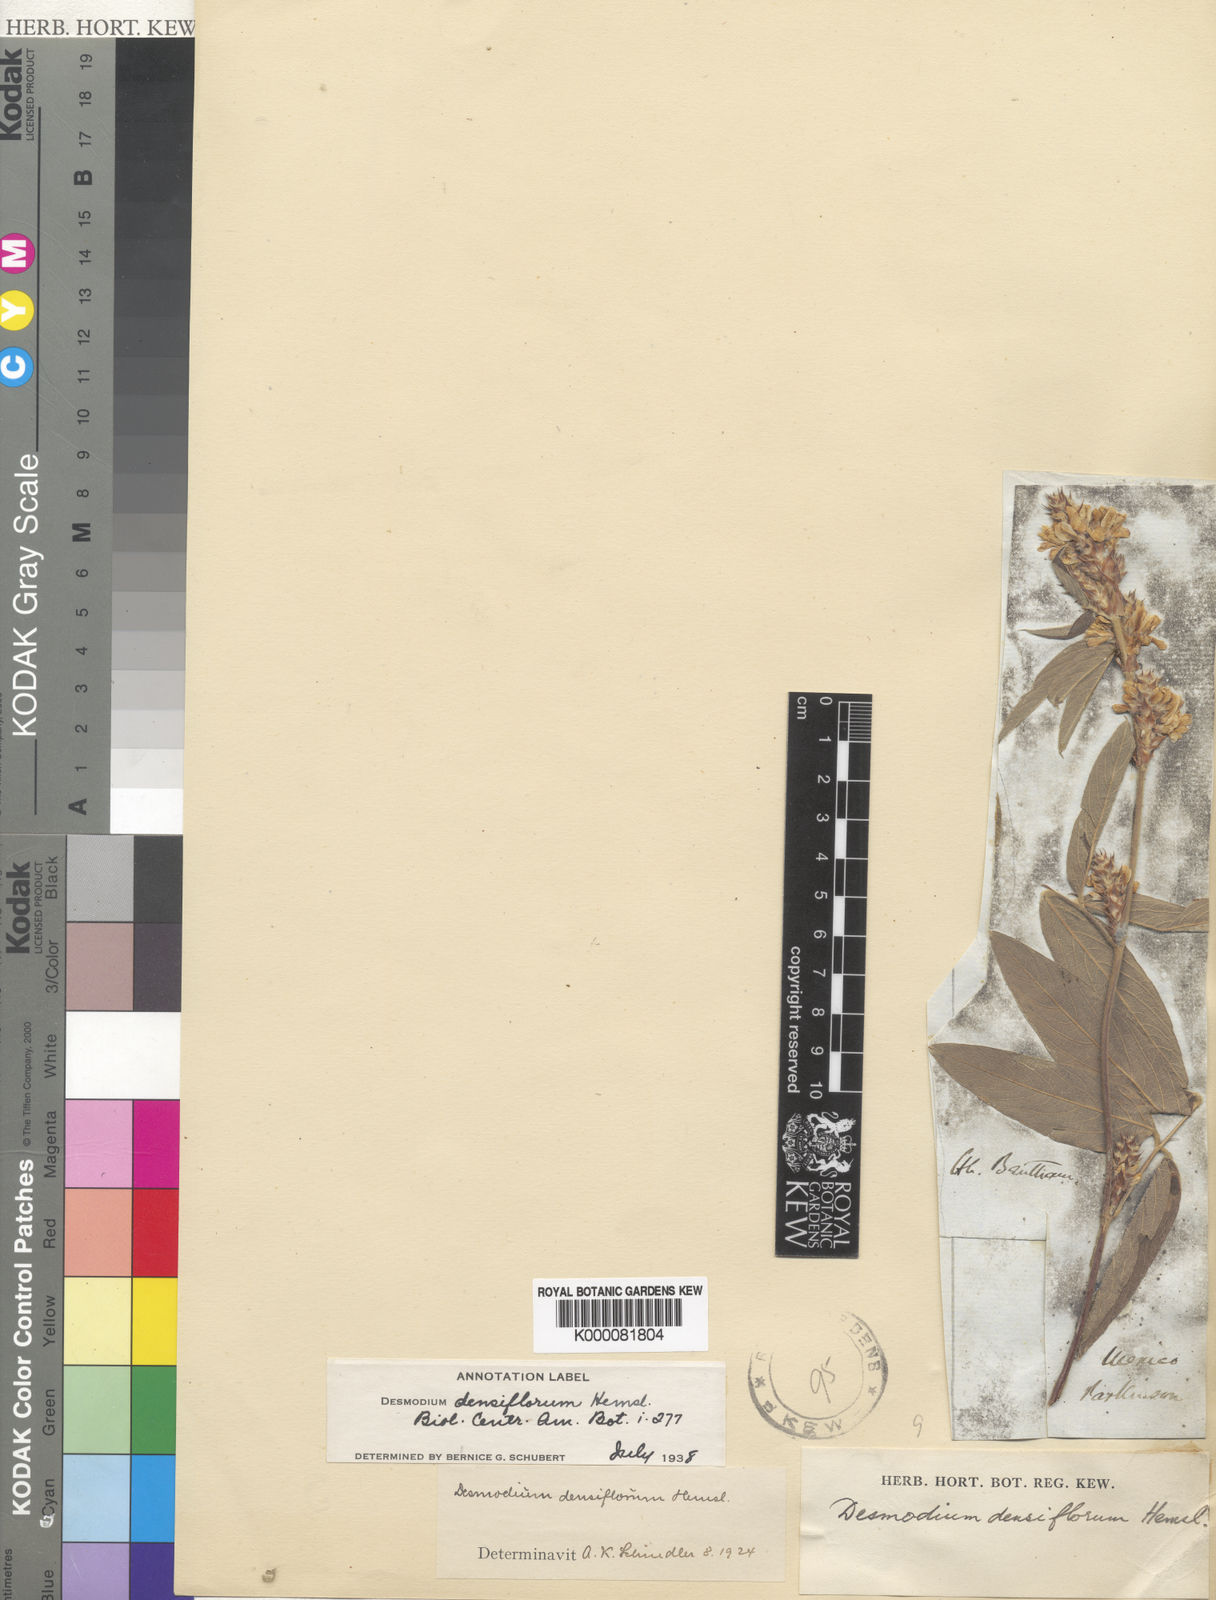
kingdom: Plantae
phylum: Tracheophyta
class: Magnoliopsida
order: Fabales
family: Fabaceae
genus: Desmodium
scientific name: Desmodium densiflorum
